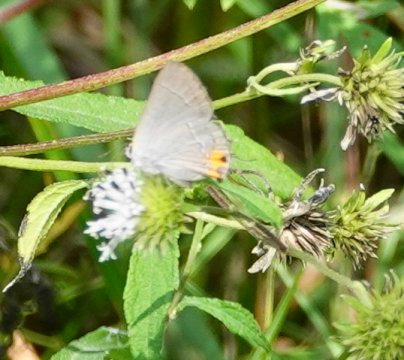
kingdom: Animalia
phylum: Arthropoda
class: Insecta
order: Lepidoptera
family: Lycaenidae
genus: Strymon
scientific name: Strymon melinus
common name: Gray Hairstreak
